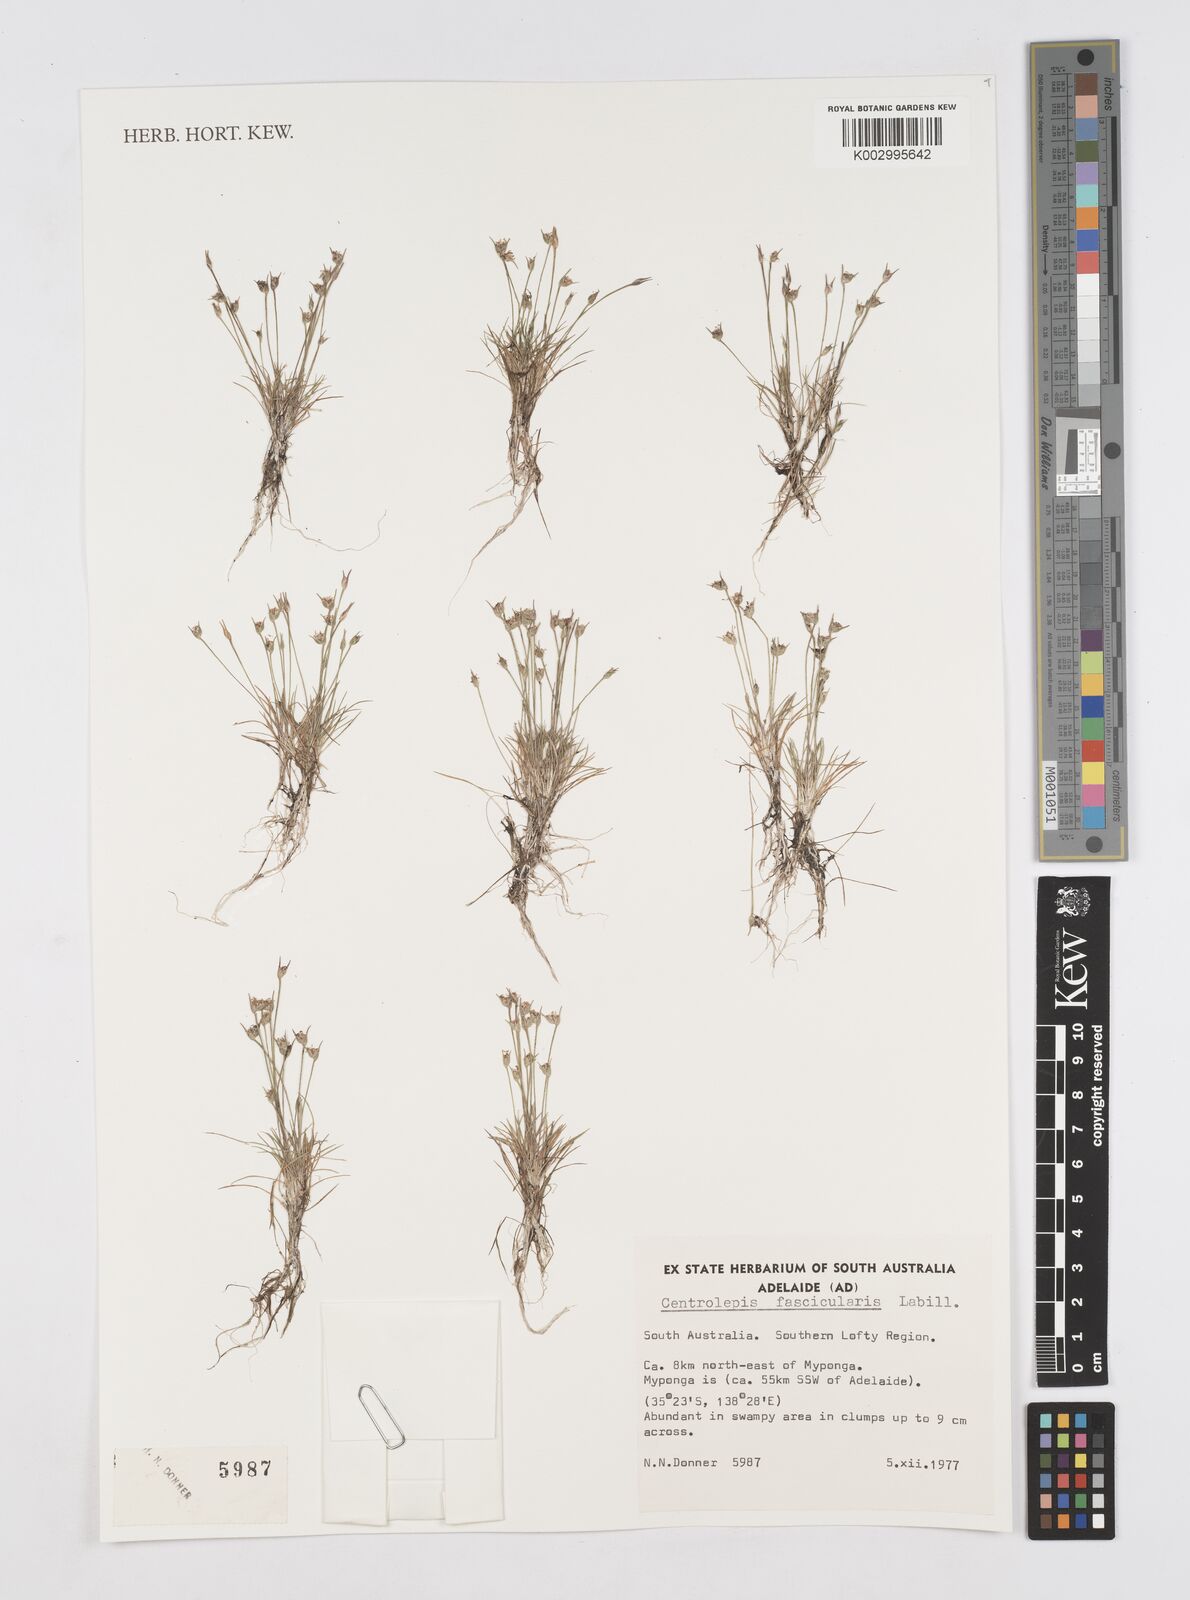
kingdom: Plantae
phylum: Tracheophyta
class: Liliopsida
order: Poales
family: Restionaceae
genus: Centrolepis
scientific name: Centrolepis fascicularis
